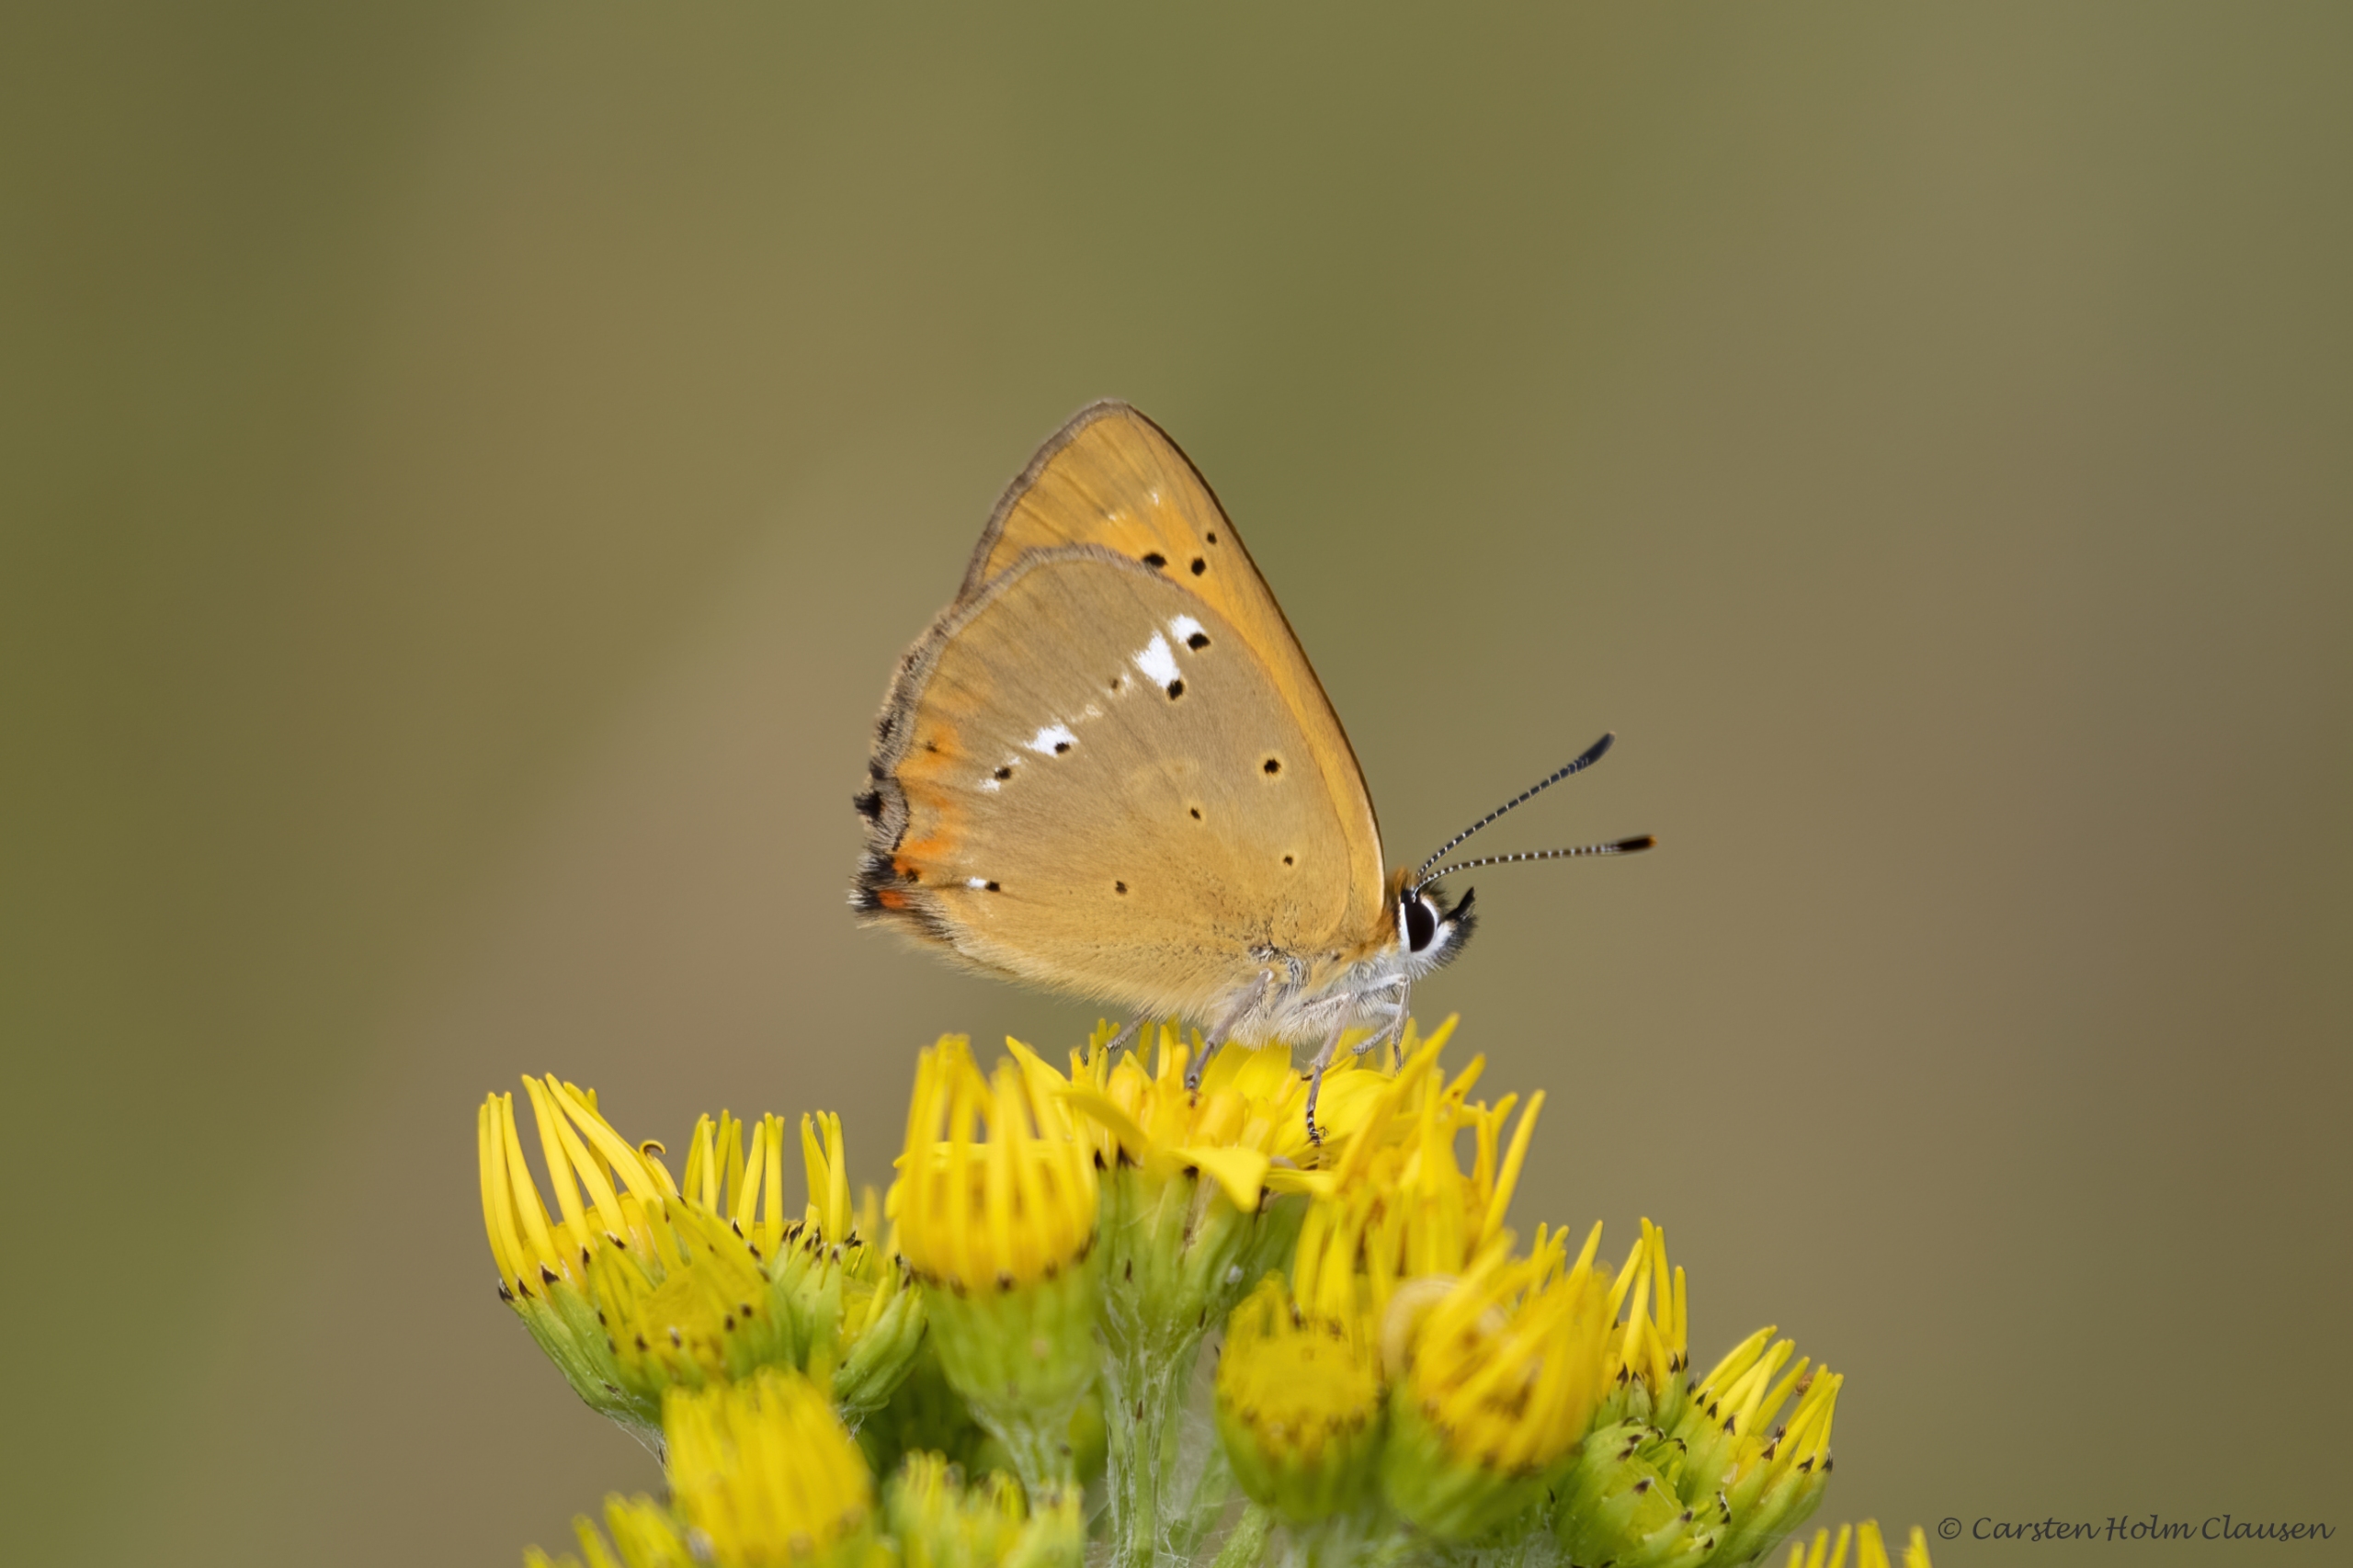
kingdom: Animalia
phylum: Arthropoda
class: Insecta
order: Lepidoptera
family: Lycaenidae
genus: Lycaena
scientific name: Lycaena virgaureae
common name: Dukatsommerfugl
